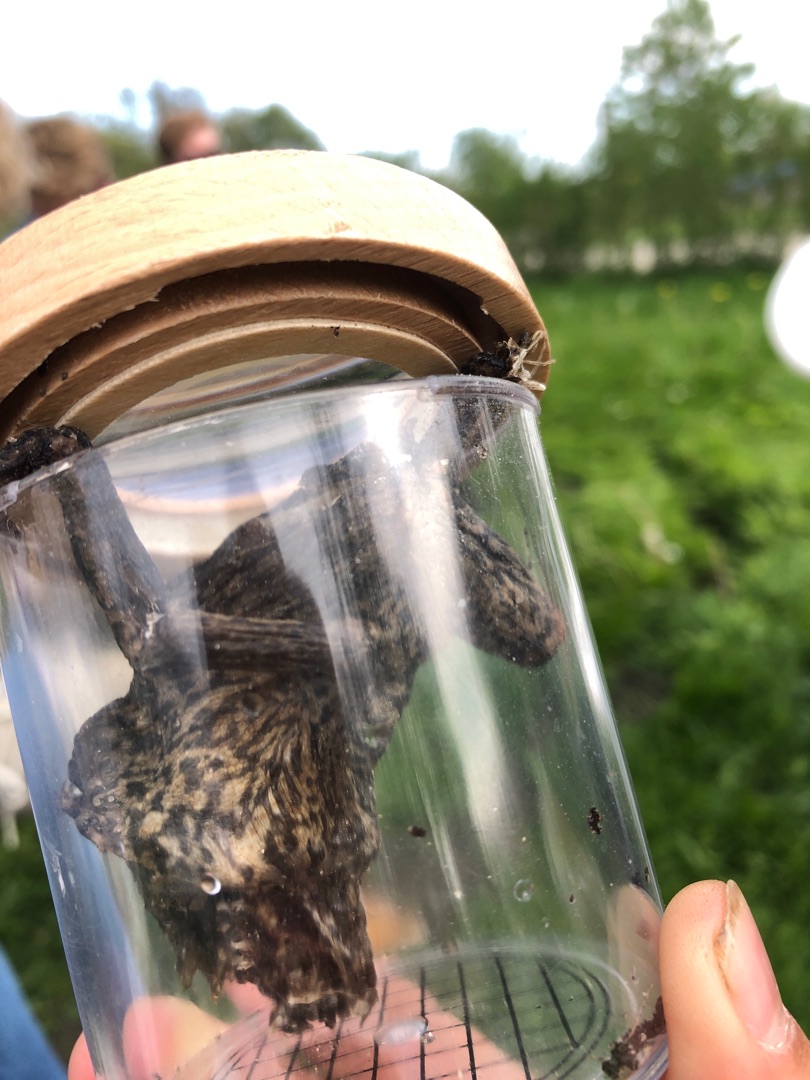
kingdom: Animalia
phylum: Chordata
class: Amphibia
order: Anura
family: Bufonidae
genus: Bufo
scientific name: Bufo bufo
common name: Skrubtudse
